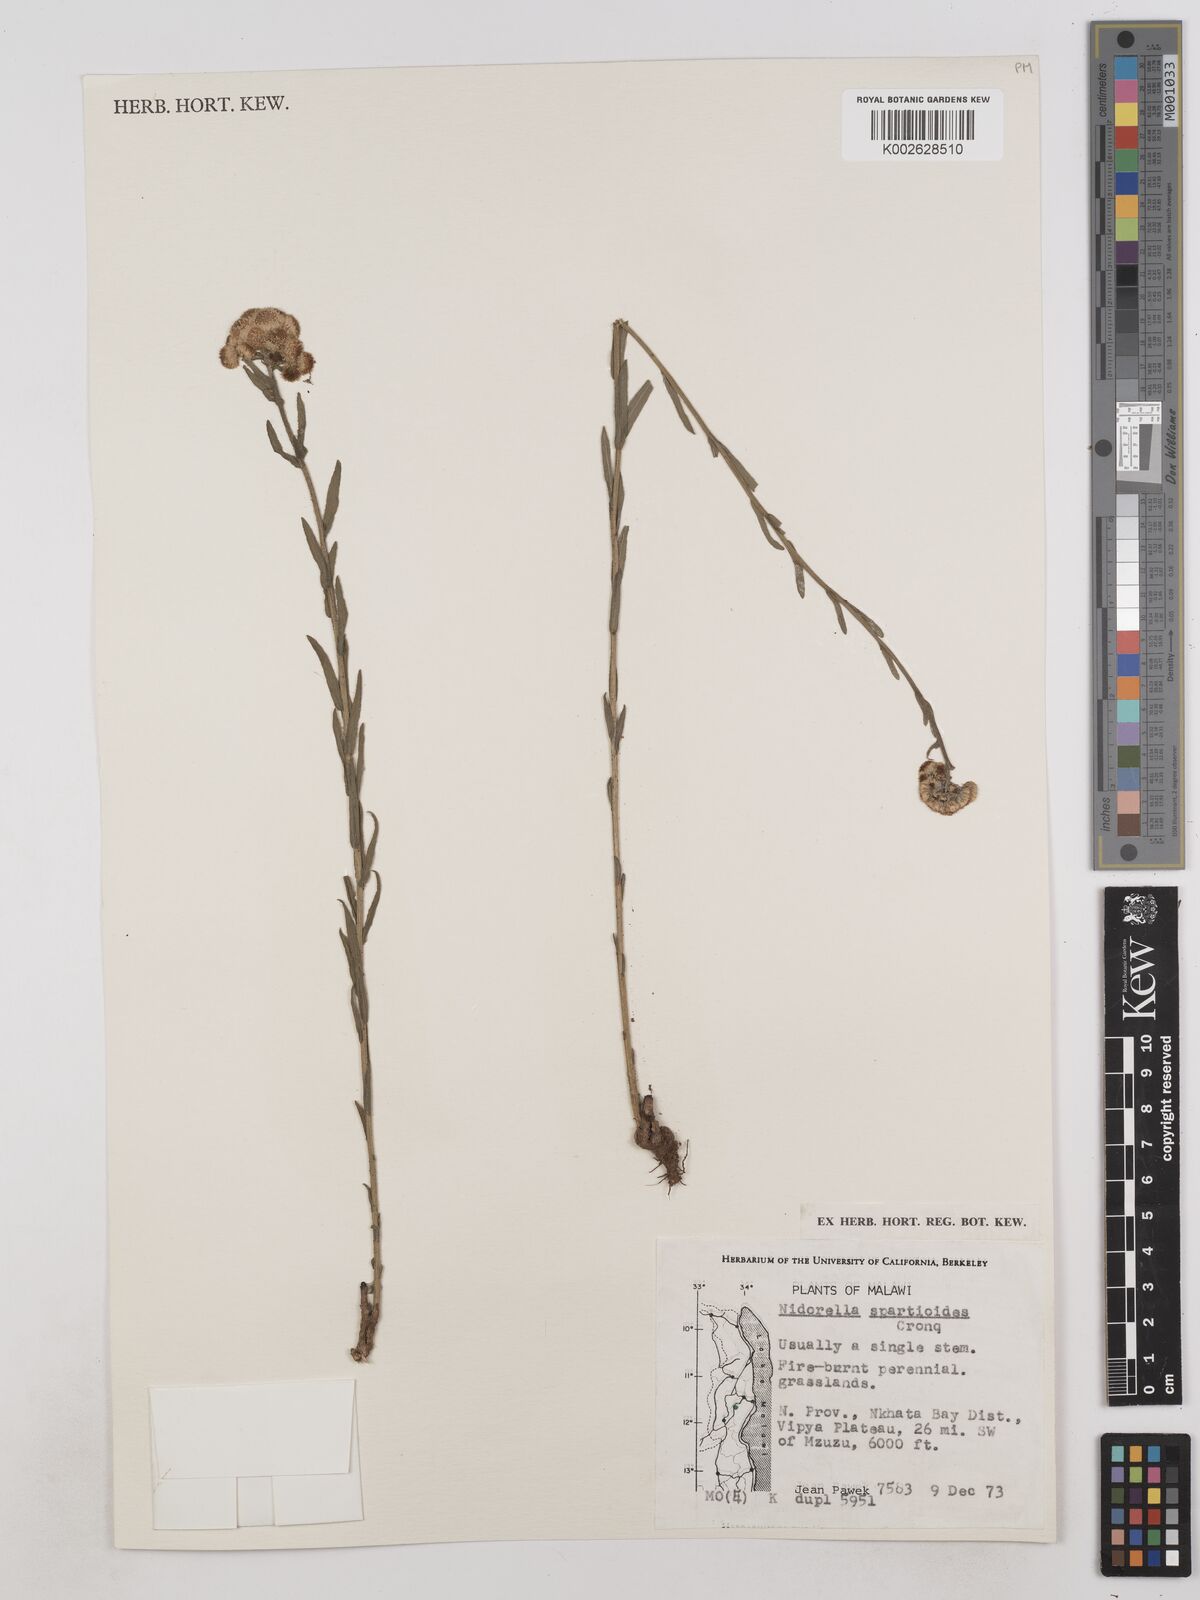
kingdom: Plantae
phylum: Tracheophyta
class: Magnoliopsida
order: Asterales
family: Asteraceae
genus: Nidorella
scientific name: Nidorella spartioides
